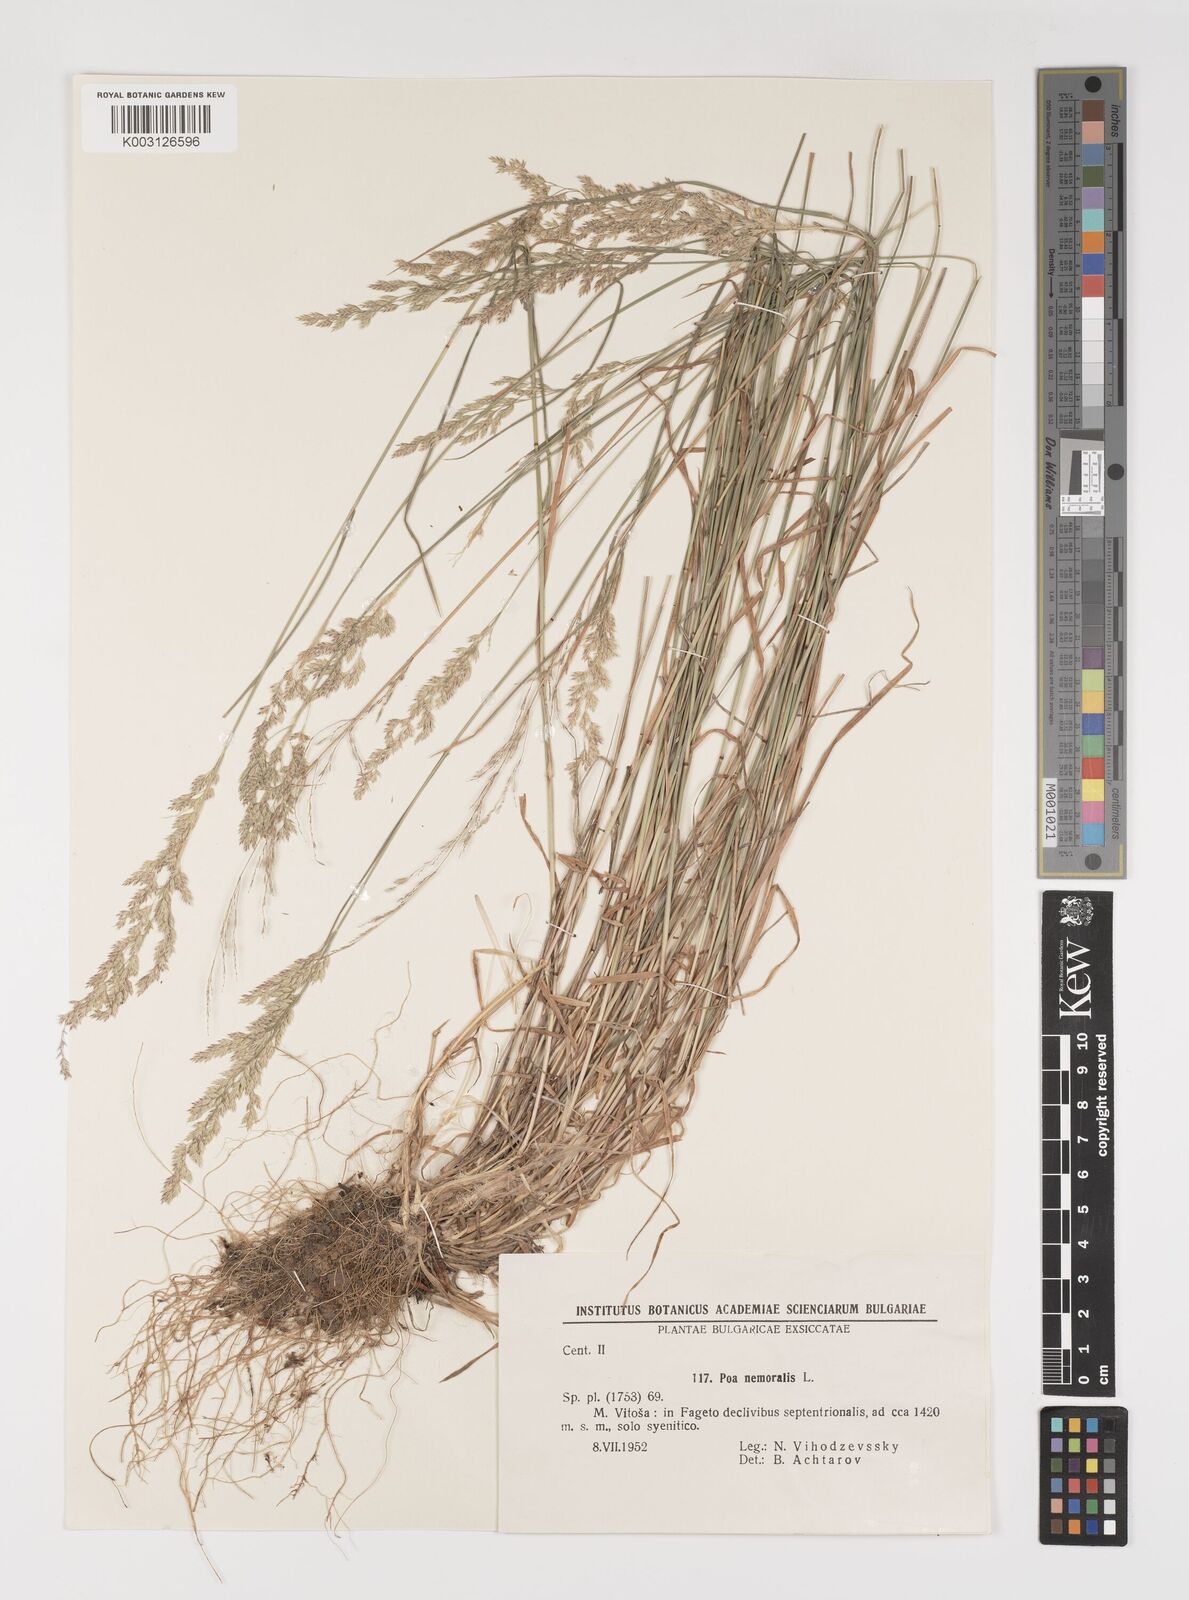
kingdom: Plantae
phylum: Tracheophyta
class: Liliopsida
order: Poales
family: Poaceae
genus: Poa
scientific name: Poa nemoralis
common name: Wood bluegrass
